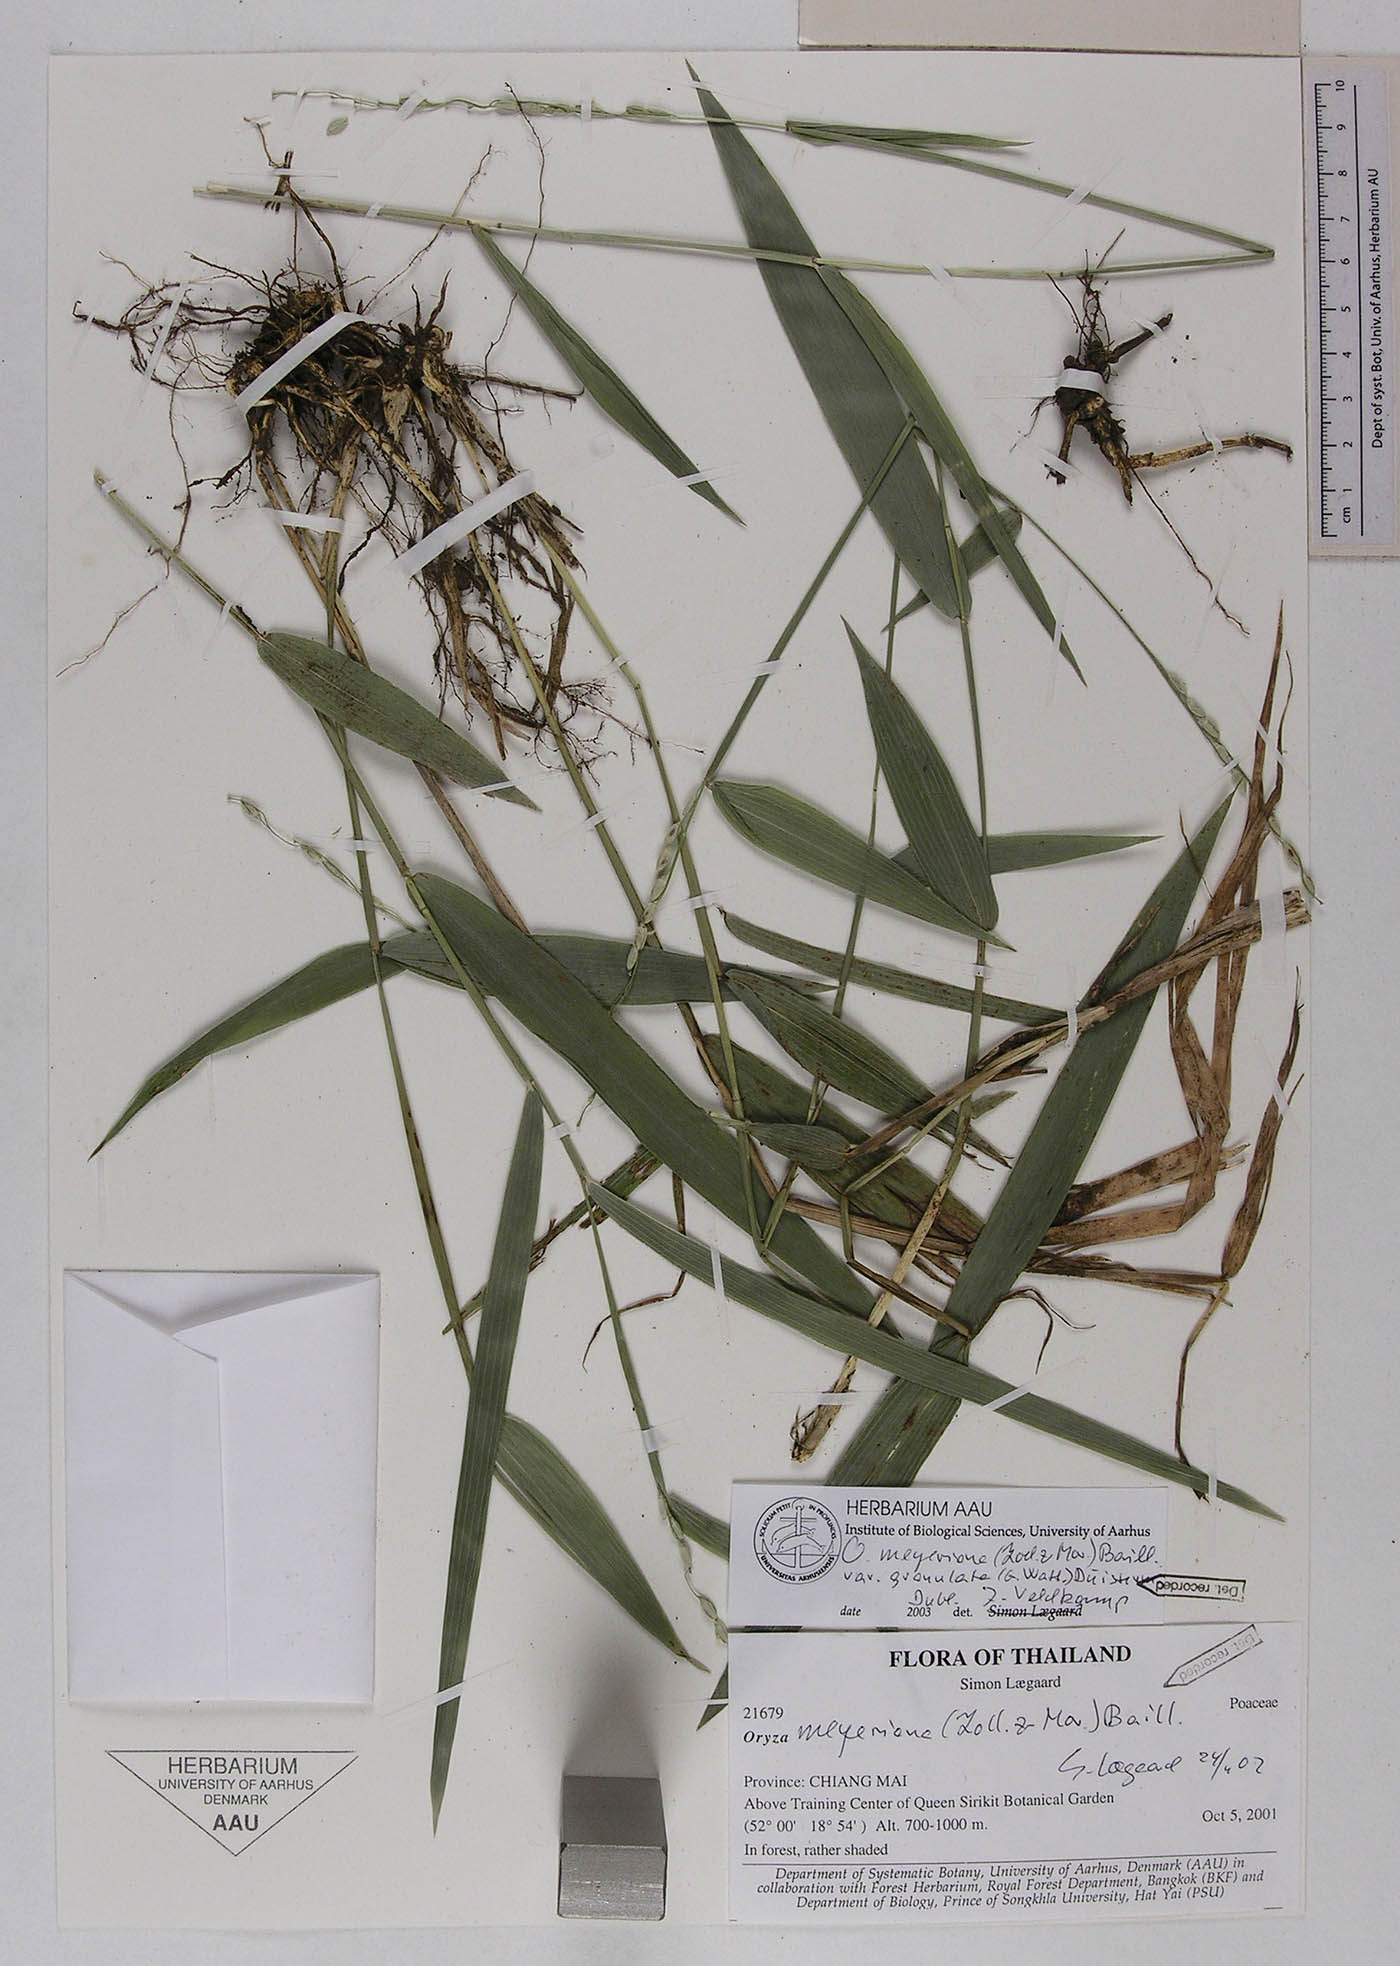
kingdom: Plantae
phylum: Tracheophyta
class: Liliopsida
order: Poales
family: Poaceae
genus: Oryza
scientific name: Oryza meyeriana
